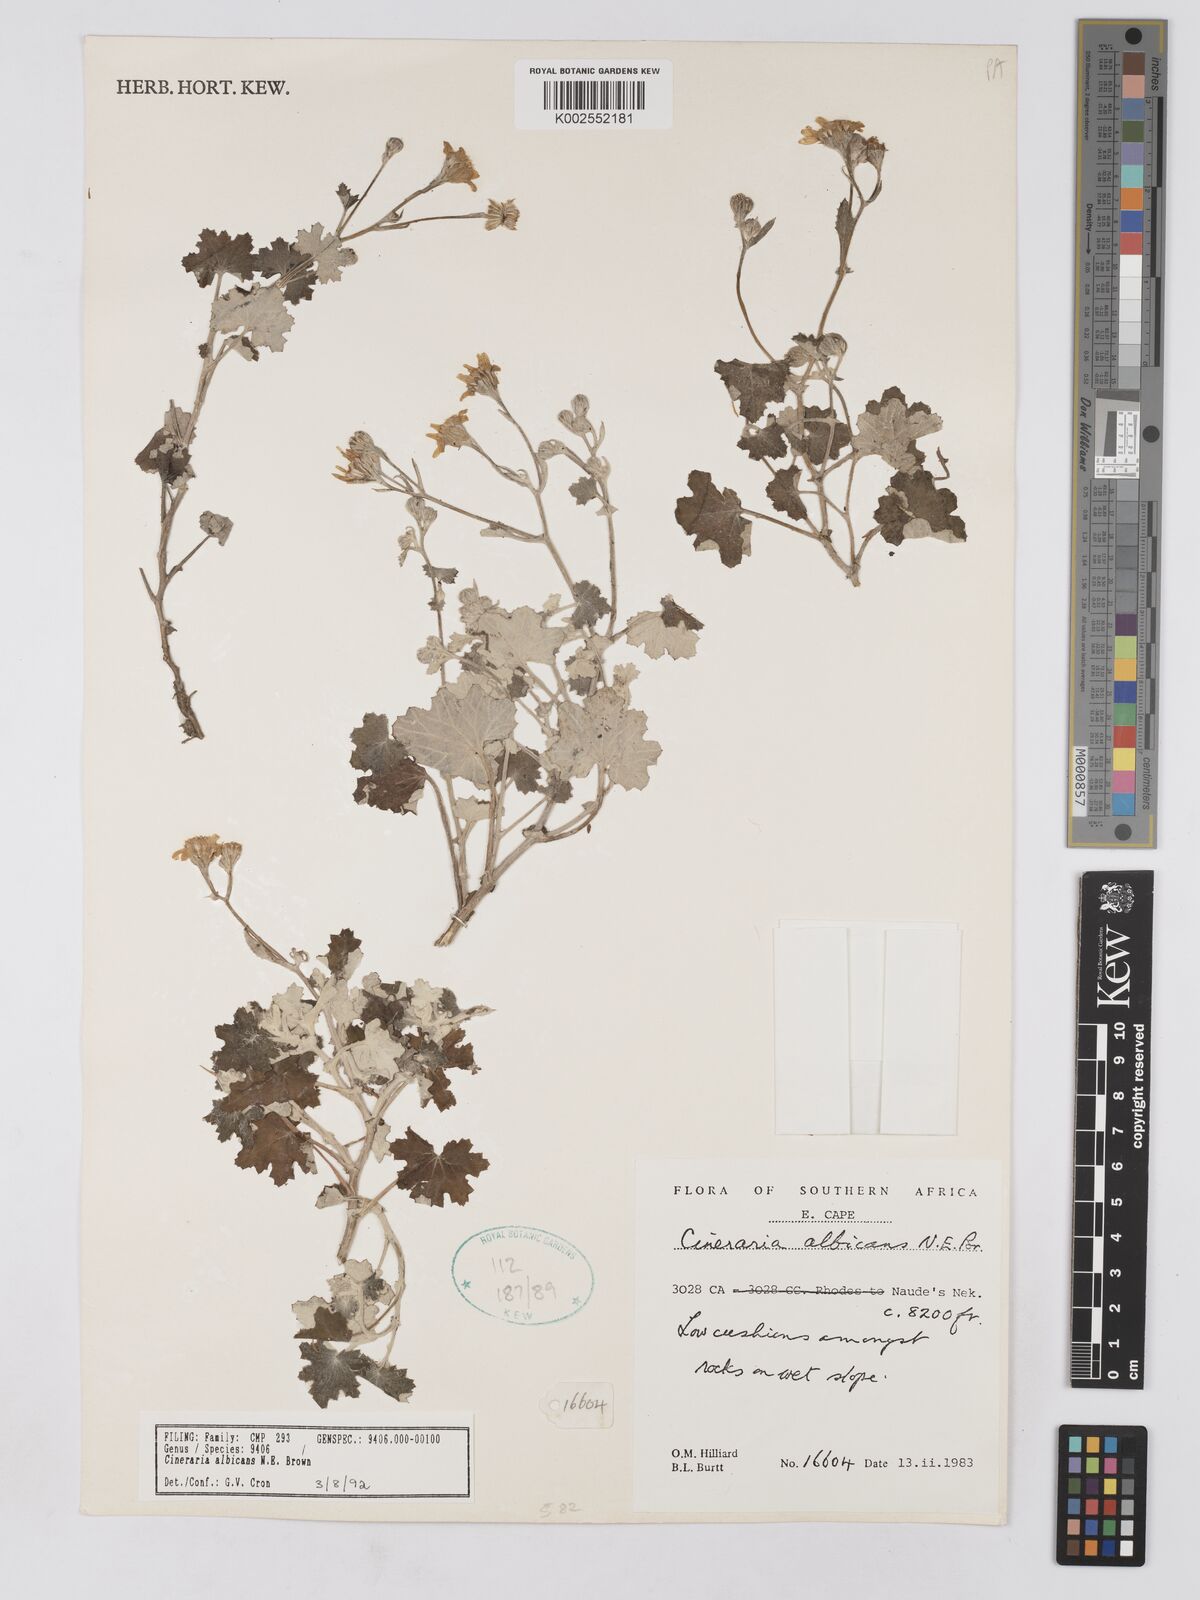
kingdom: Plantae
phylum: Tracheophyta
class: Magnoliopsida
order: Asterales
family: Asteraceae
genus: Cineraria
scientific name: Cineraria albicans
